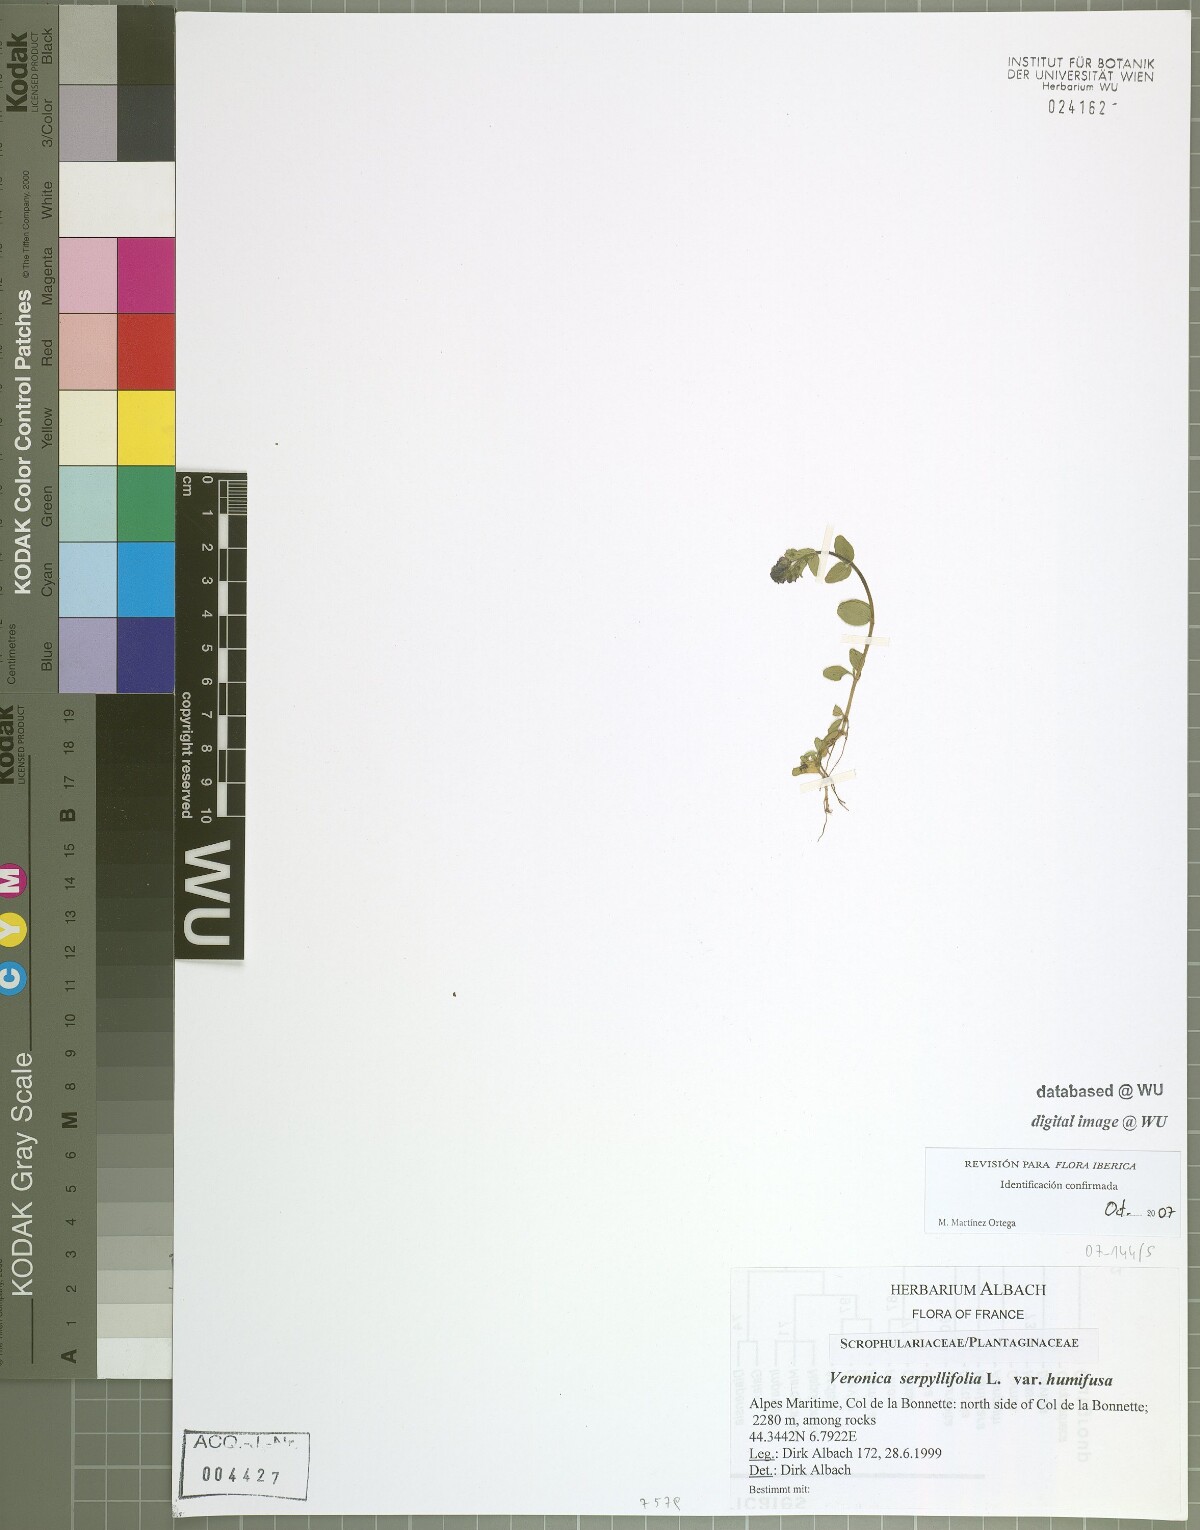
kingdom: Plantae
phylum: Tracheophyta
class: Magnoliopsida
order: Lamiales
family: Plantaginaceae
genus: Veronica
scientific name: Veronica serpyllifolia
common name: Thyme-leaved speedwell
